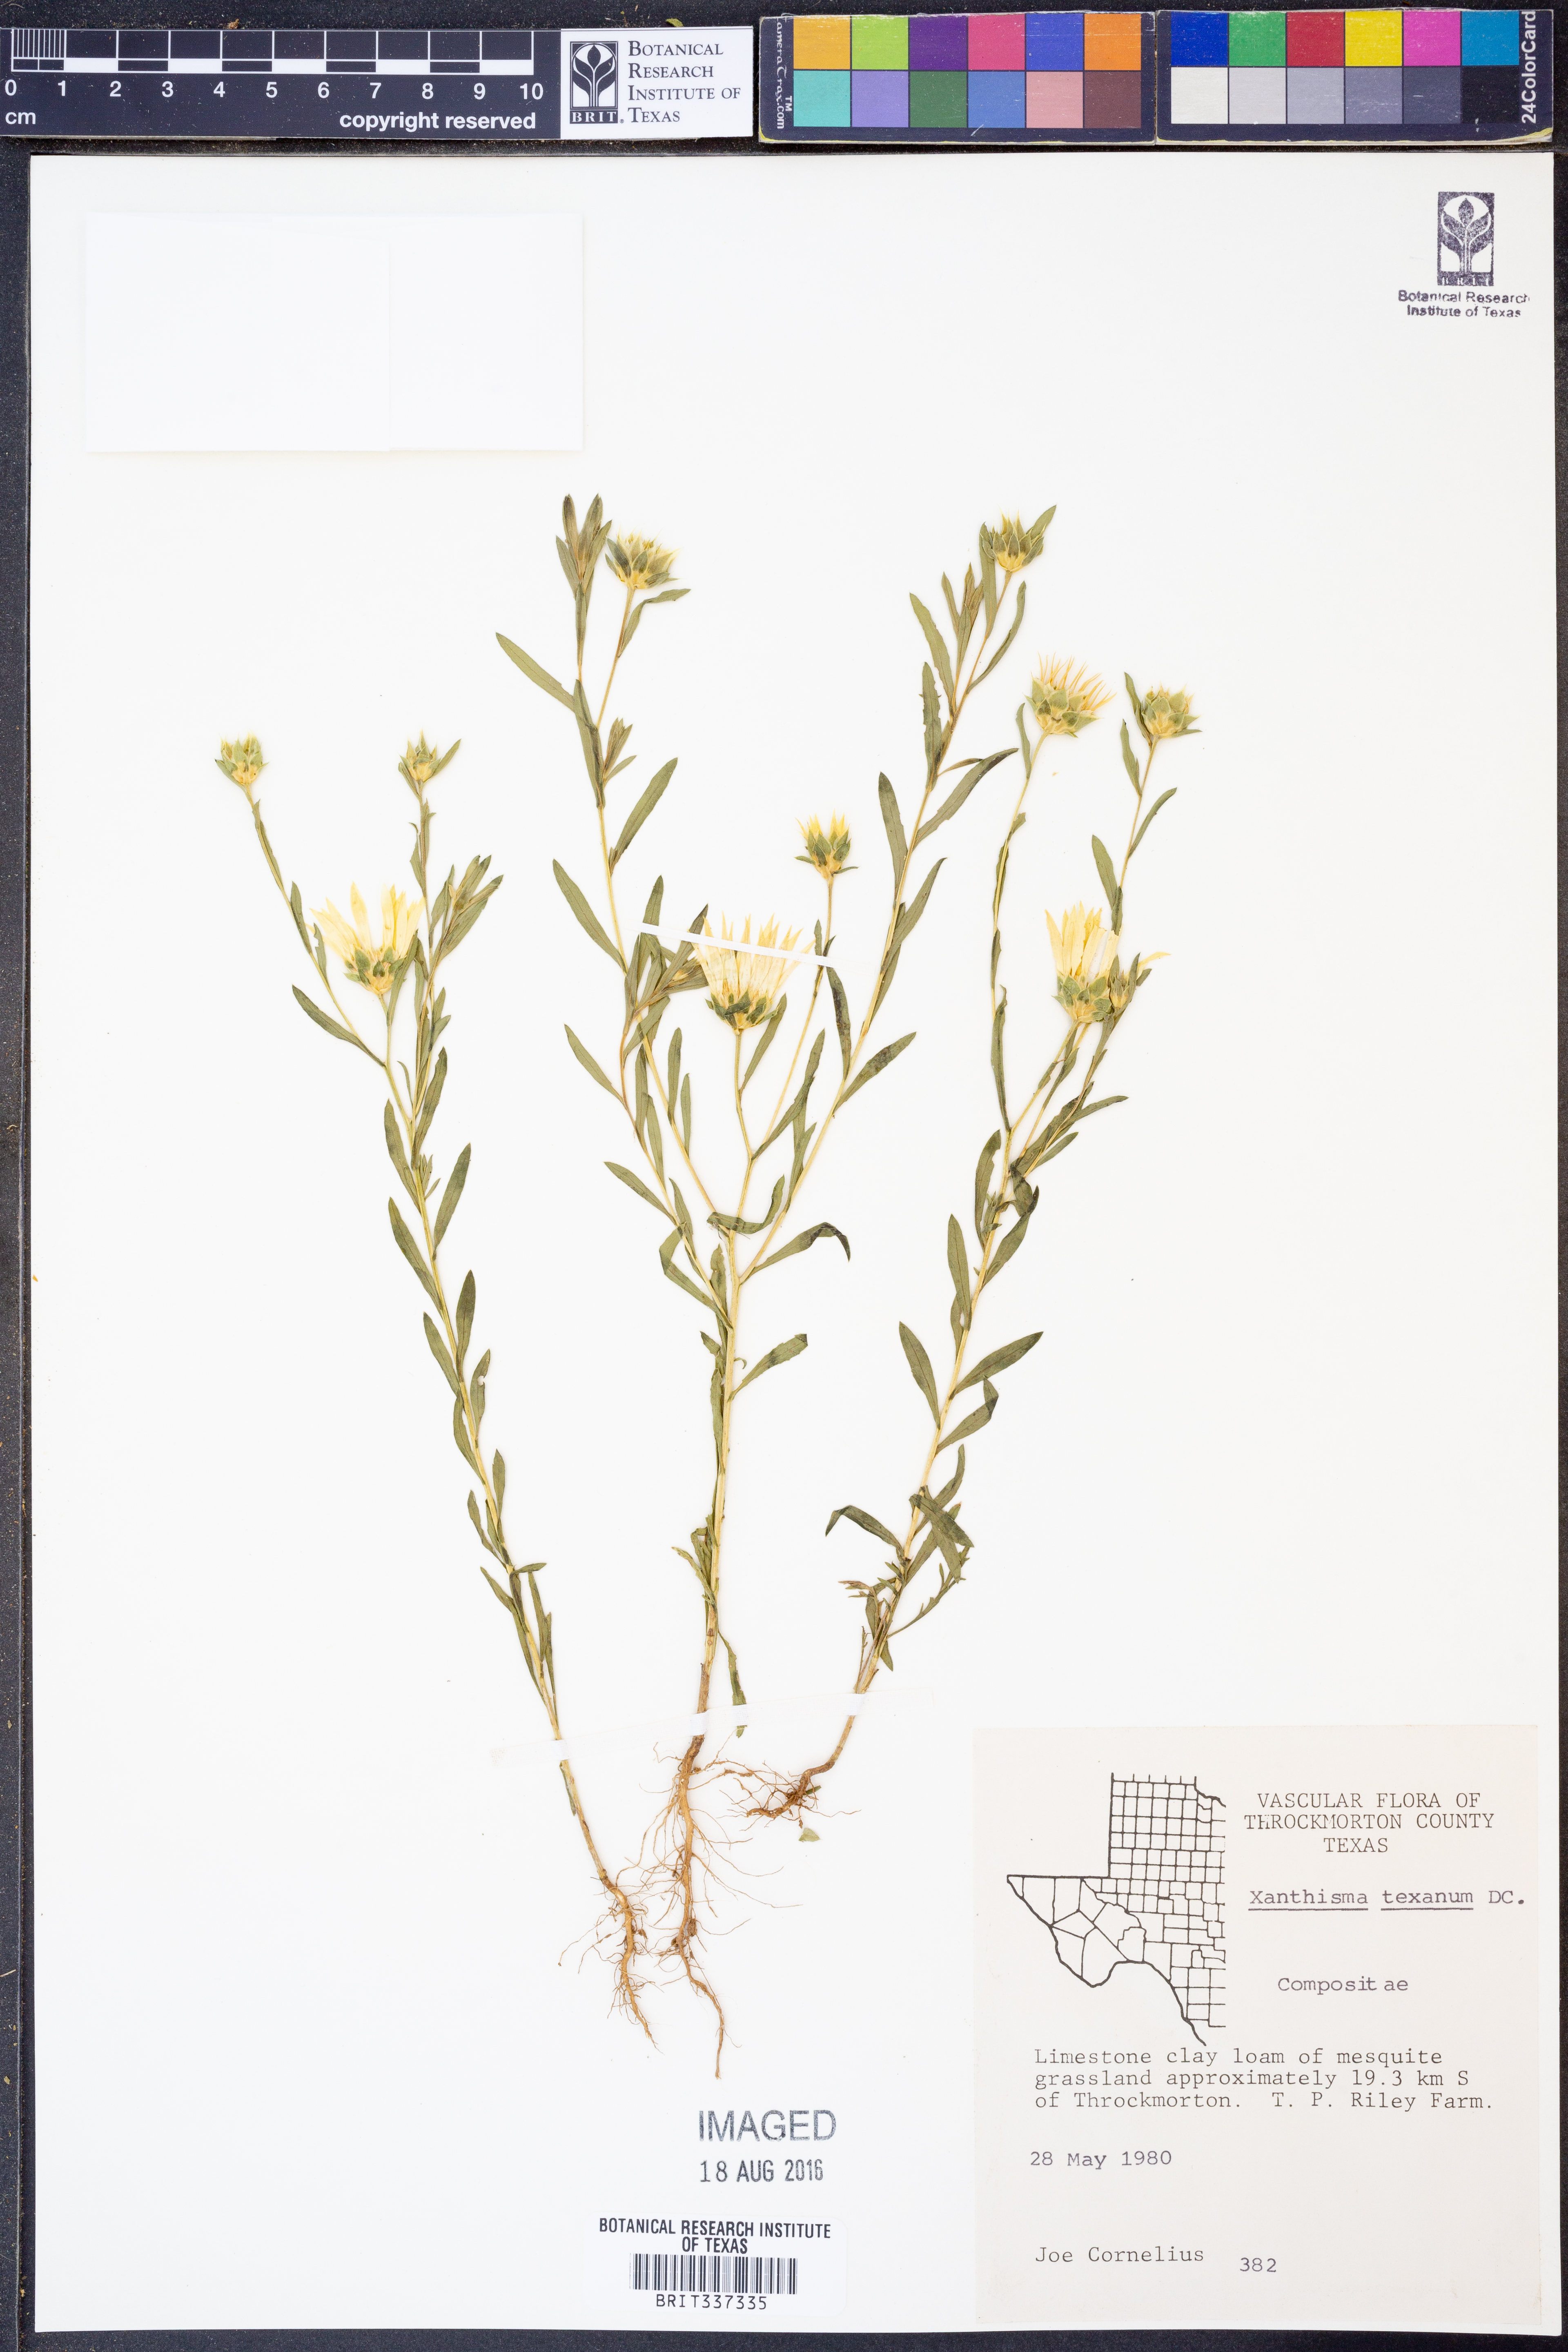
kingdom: Plantae
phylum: Tracheophyta
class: Magnoliopsida
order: Asterales
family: Asteraceae
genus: Xanthisma
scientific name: Xanthisma texanum
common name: Texas sleepy daisy
